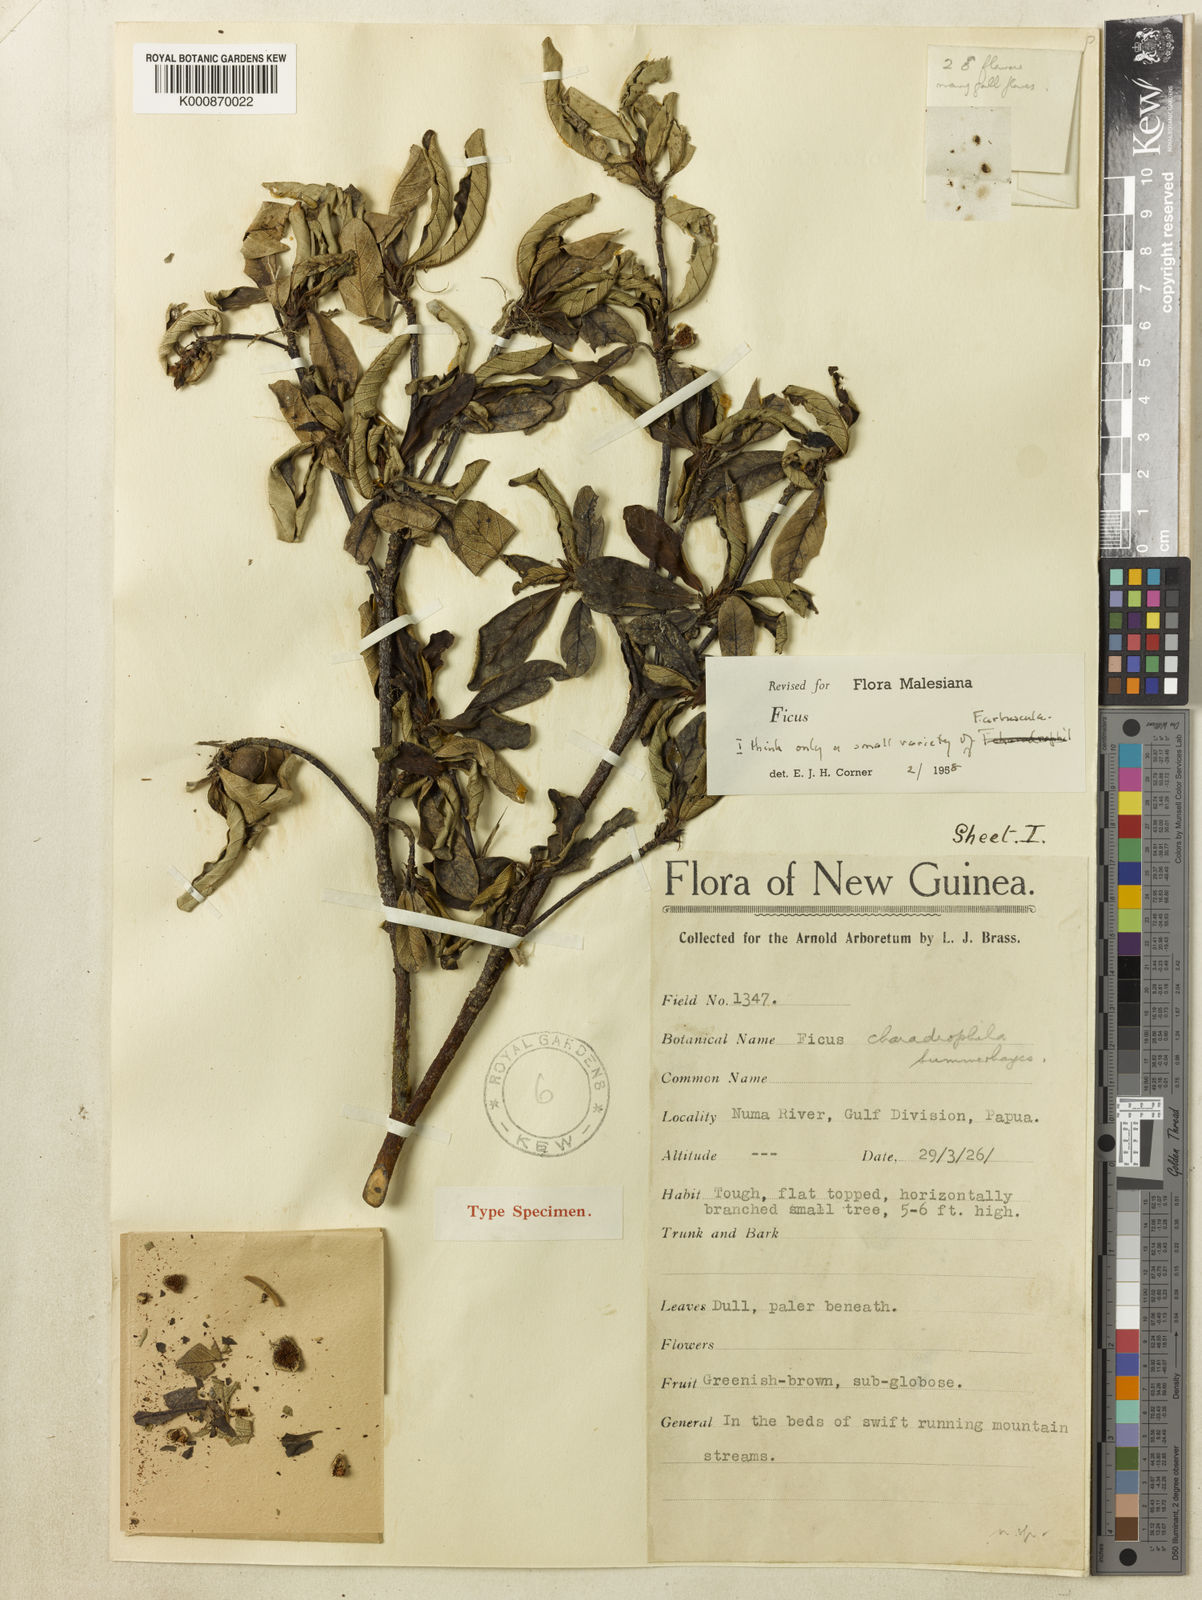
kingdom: Plantae
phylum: Tracheophyta
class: Magnoliopsida
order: Rosales
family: Moraceae
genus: Ficus
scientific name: Ficus arbuscula
